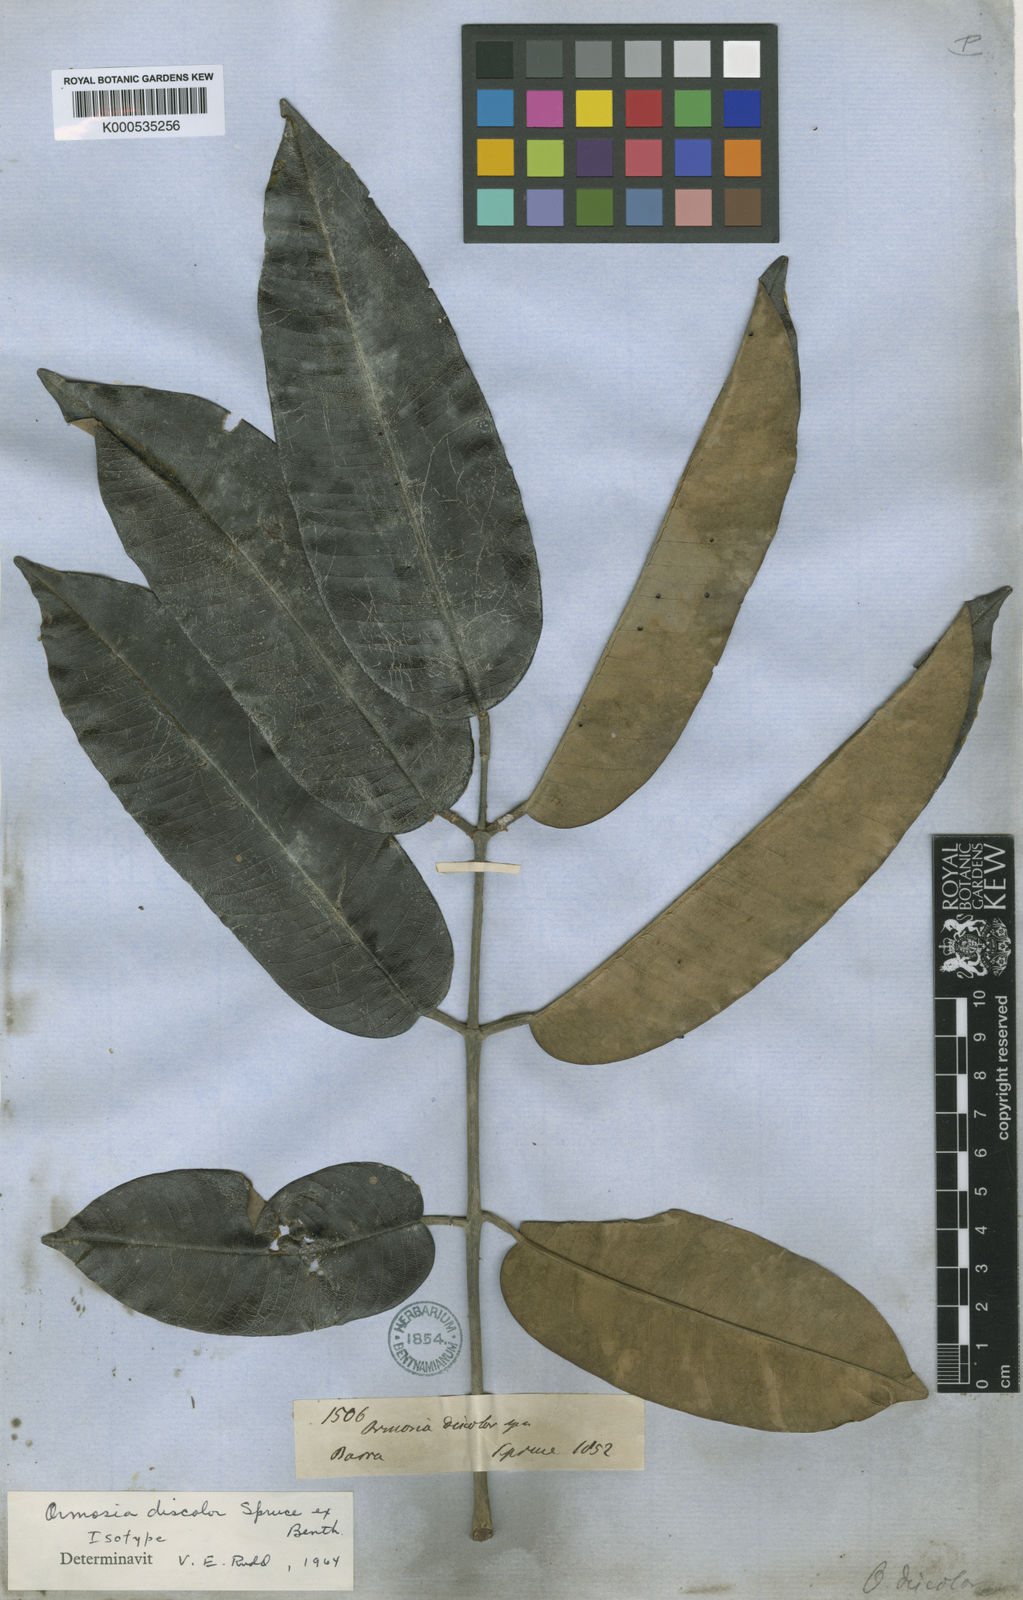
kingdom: Plantae
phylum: Tracheophyta
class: Magnoliopsida
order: Fabales
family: Fabaceae
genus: Ormosia
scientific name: Ormosia discolor
